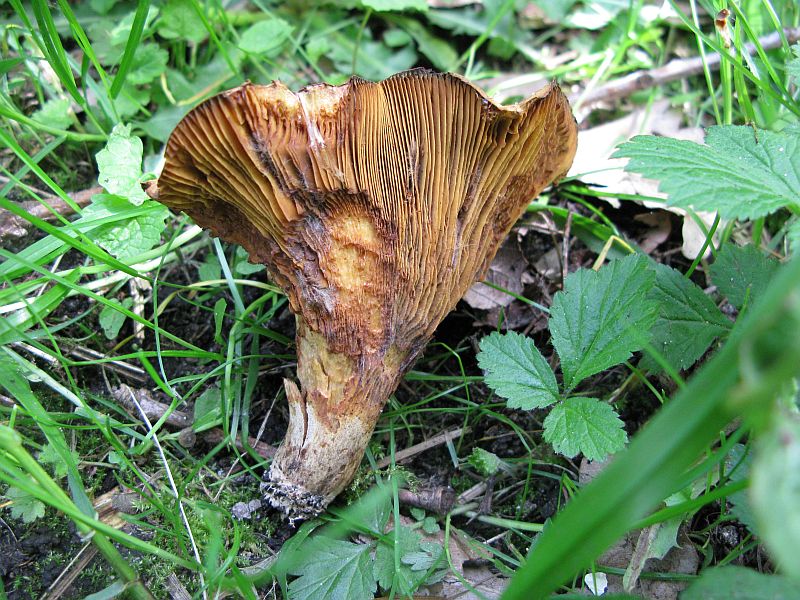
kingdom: Fungi
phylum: Basidiomycota
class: Agaricomycetes
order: Boletales
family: Paxillaceae
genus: Paxillus
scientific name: Paxillus rubicundulus
